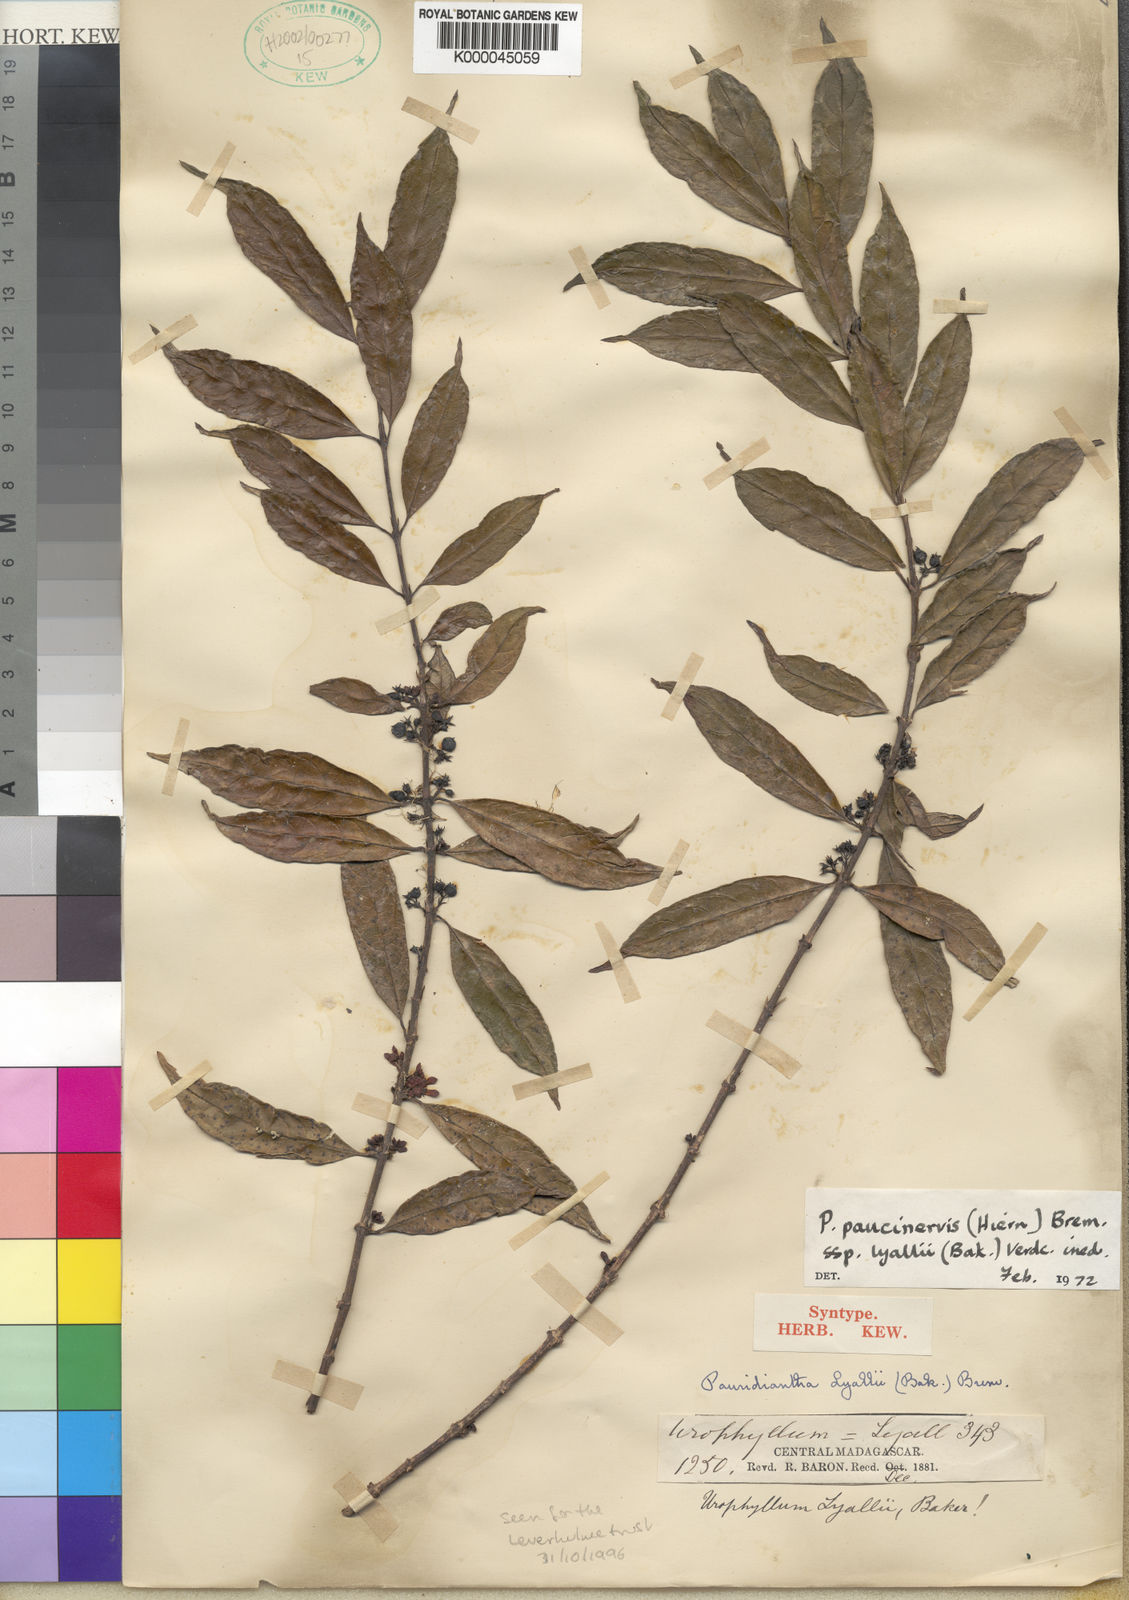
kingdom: Plantae
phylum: Tracheophyta
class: Magnoliopsida
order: Gentianales
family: Rubiaceae
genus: Pauridiantha
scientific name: Pauridiantha paucinervis
